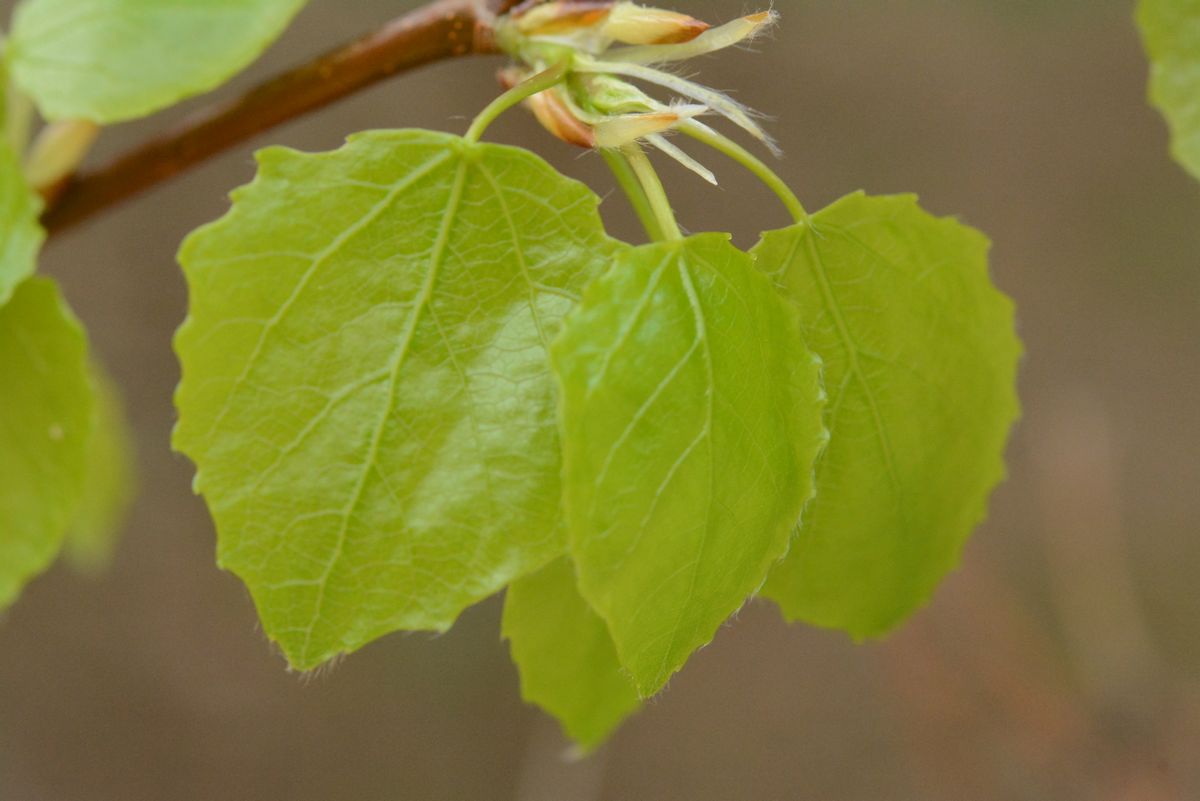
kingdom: Plantae
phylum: Tracheophyta
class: Magnoliopsida
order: Malpighiales
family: Salicaceae
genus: Populus
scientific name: Populus tremula
